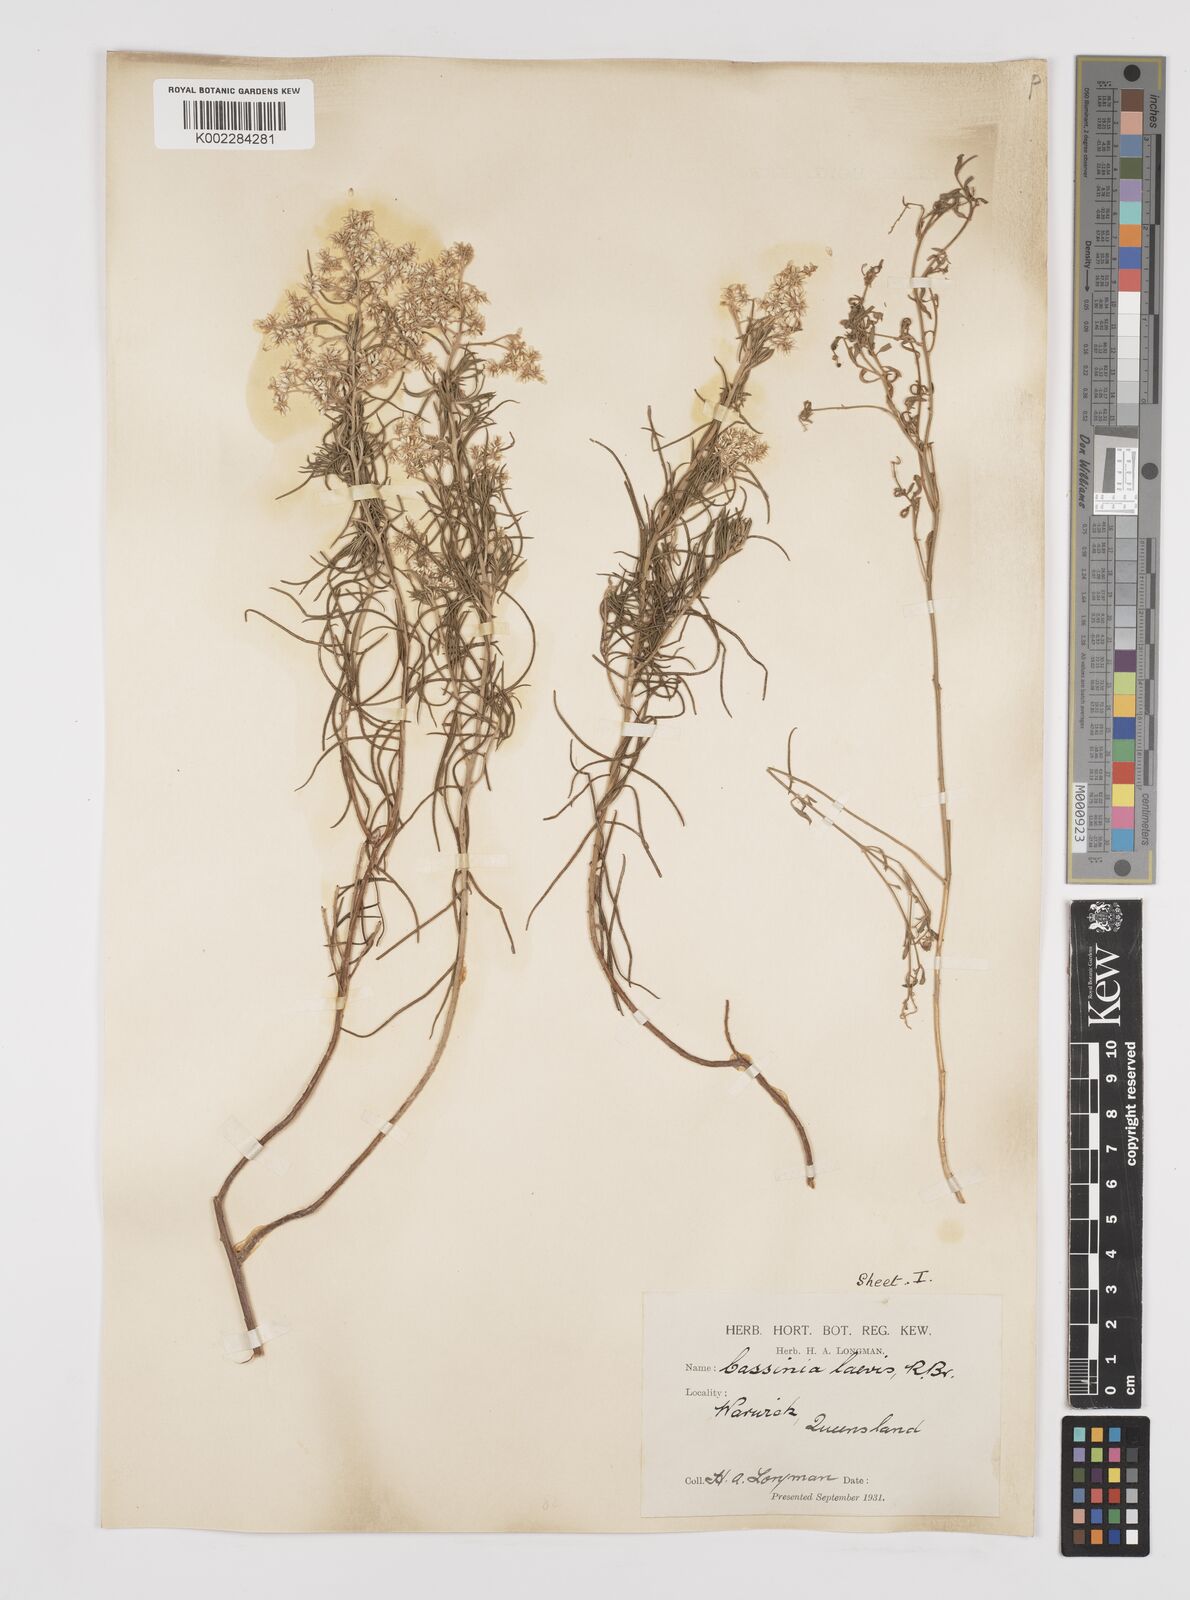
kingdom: Plantae
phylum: Tracheophyta
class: Magnoliopsida
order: Asterales
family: Asteraceae
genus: Cassinia
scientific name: Cassinia laevis
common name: Coughbush
